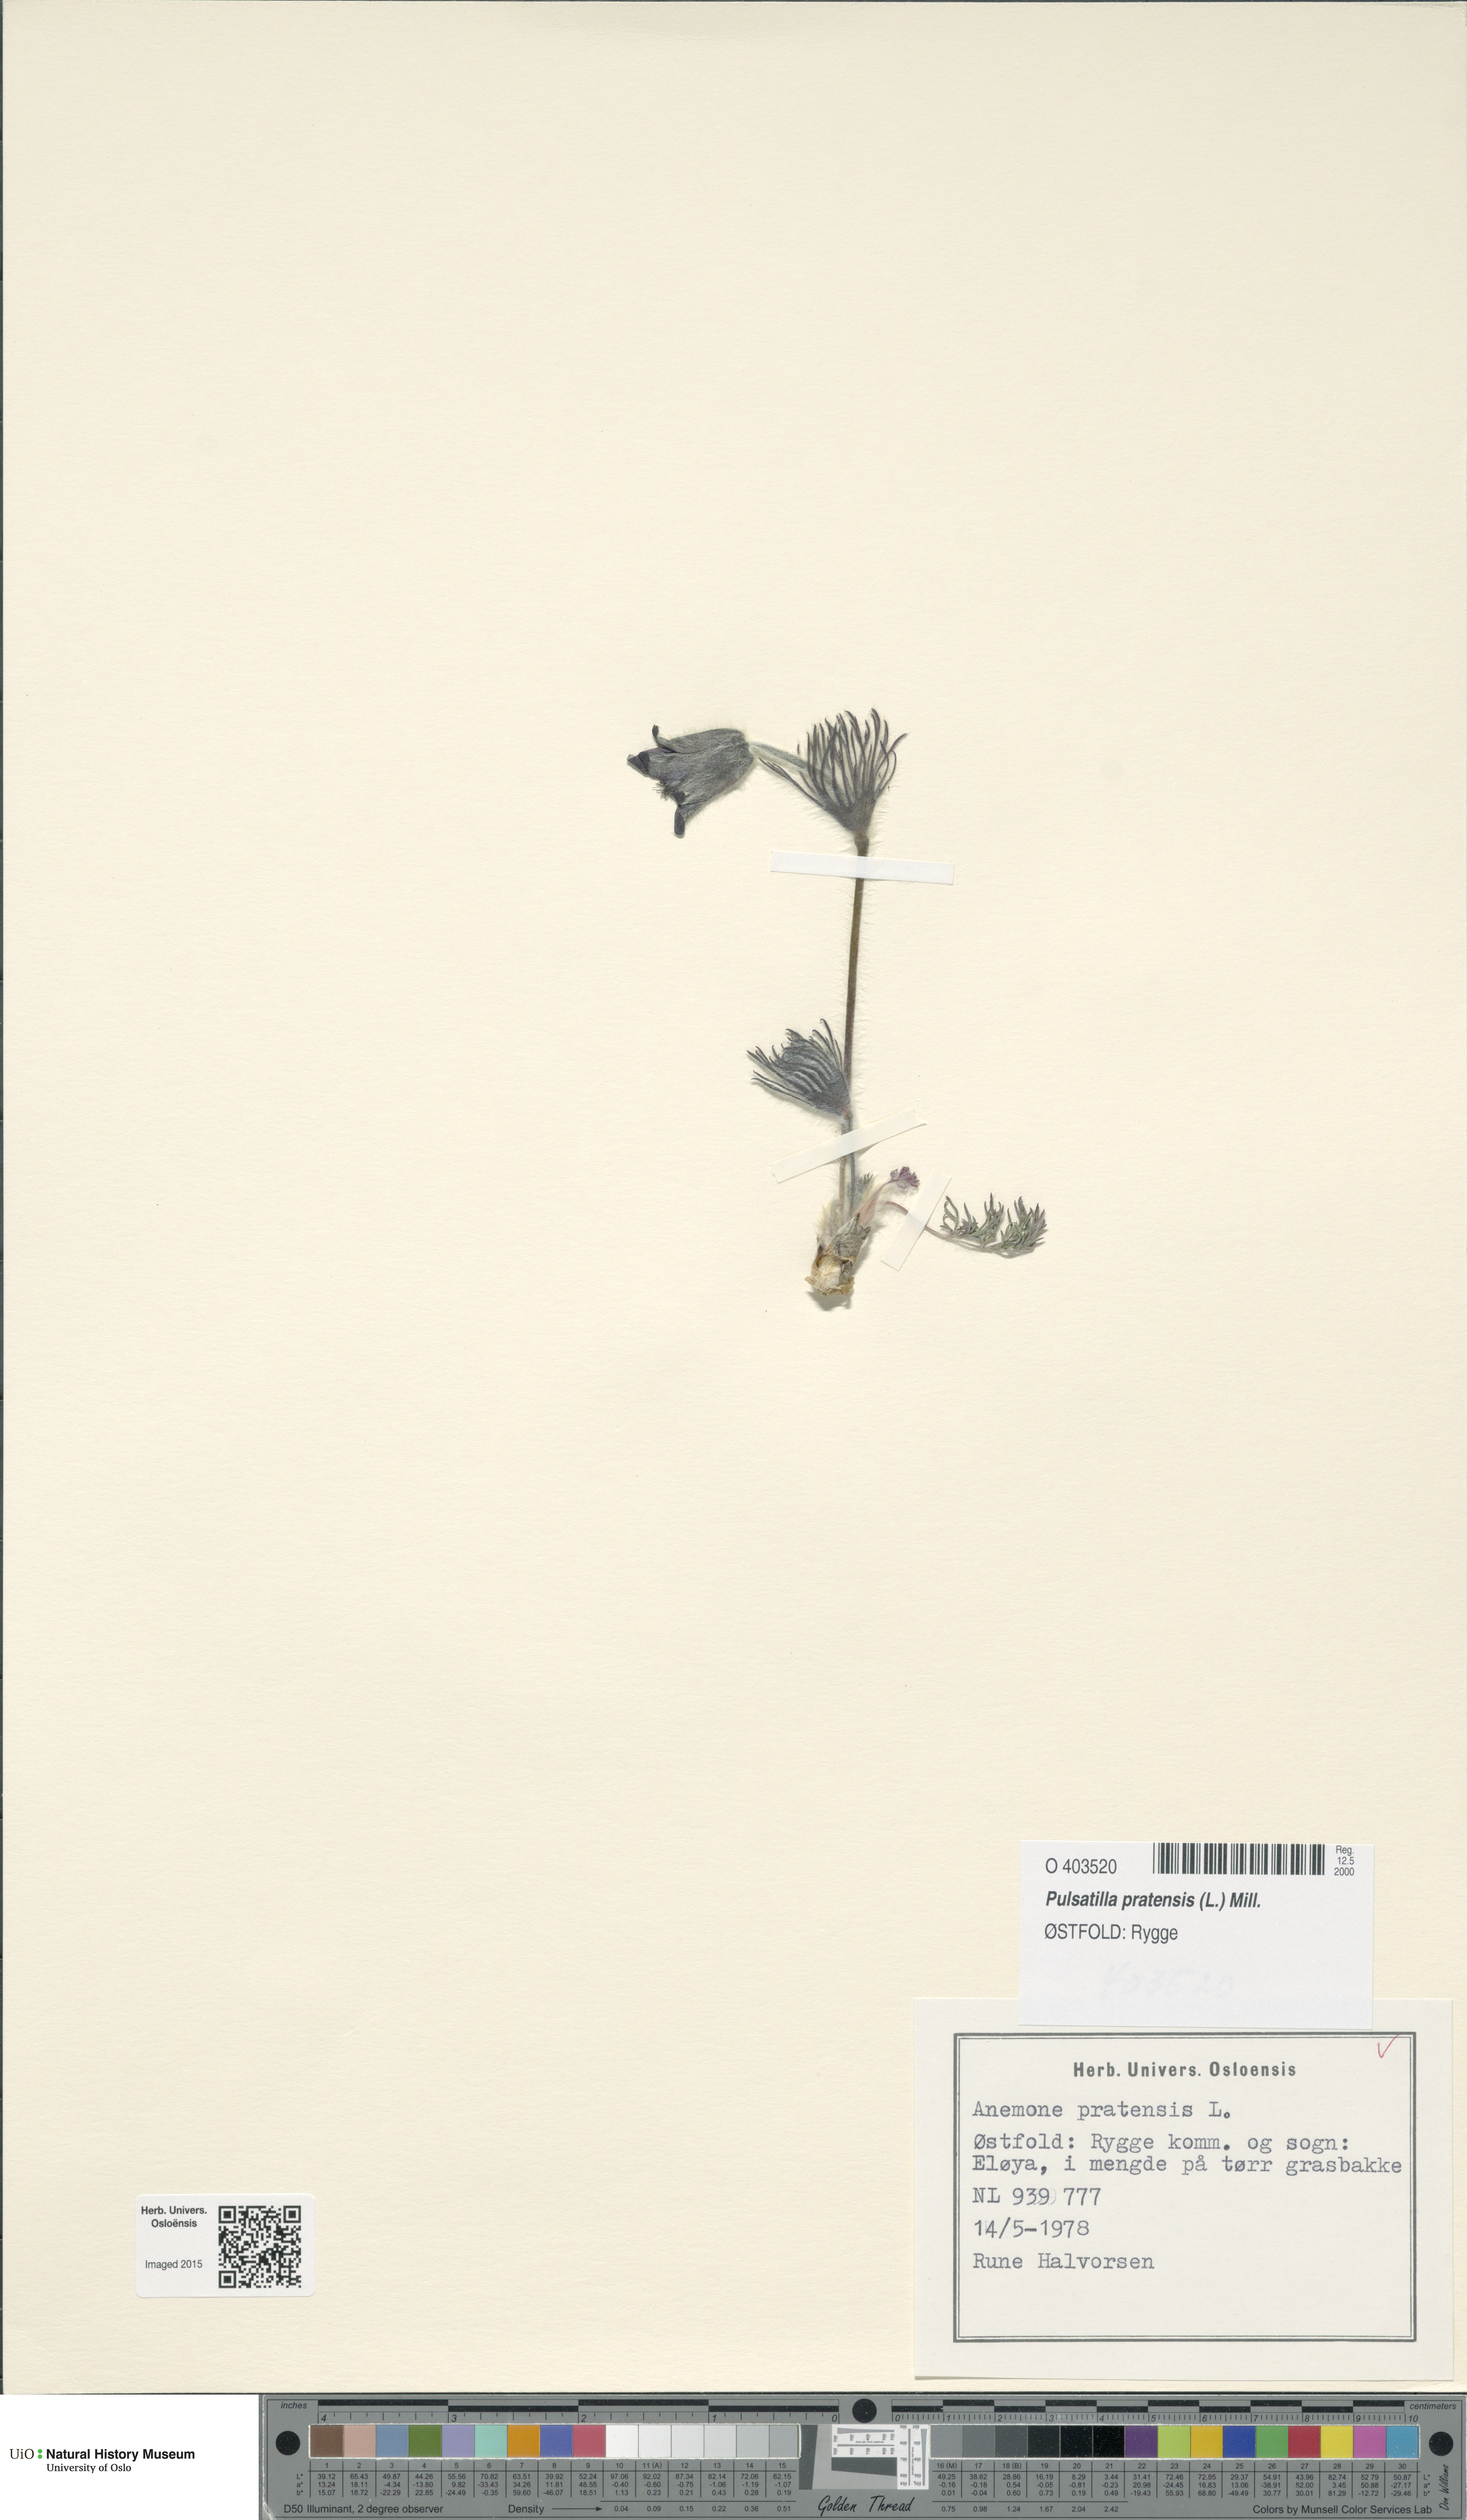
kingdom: Plantae
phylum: Tracheophyta
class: Magnoliopsida
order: Ranunculales
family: Ranunculaceae
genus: Pulsatilla
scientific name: Pulsatilla pratensis
